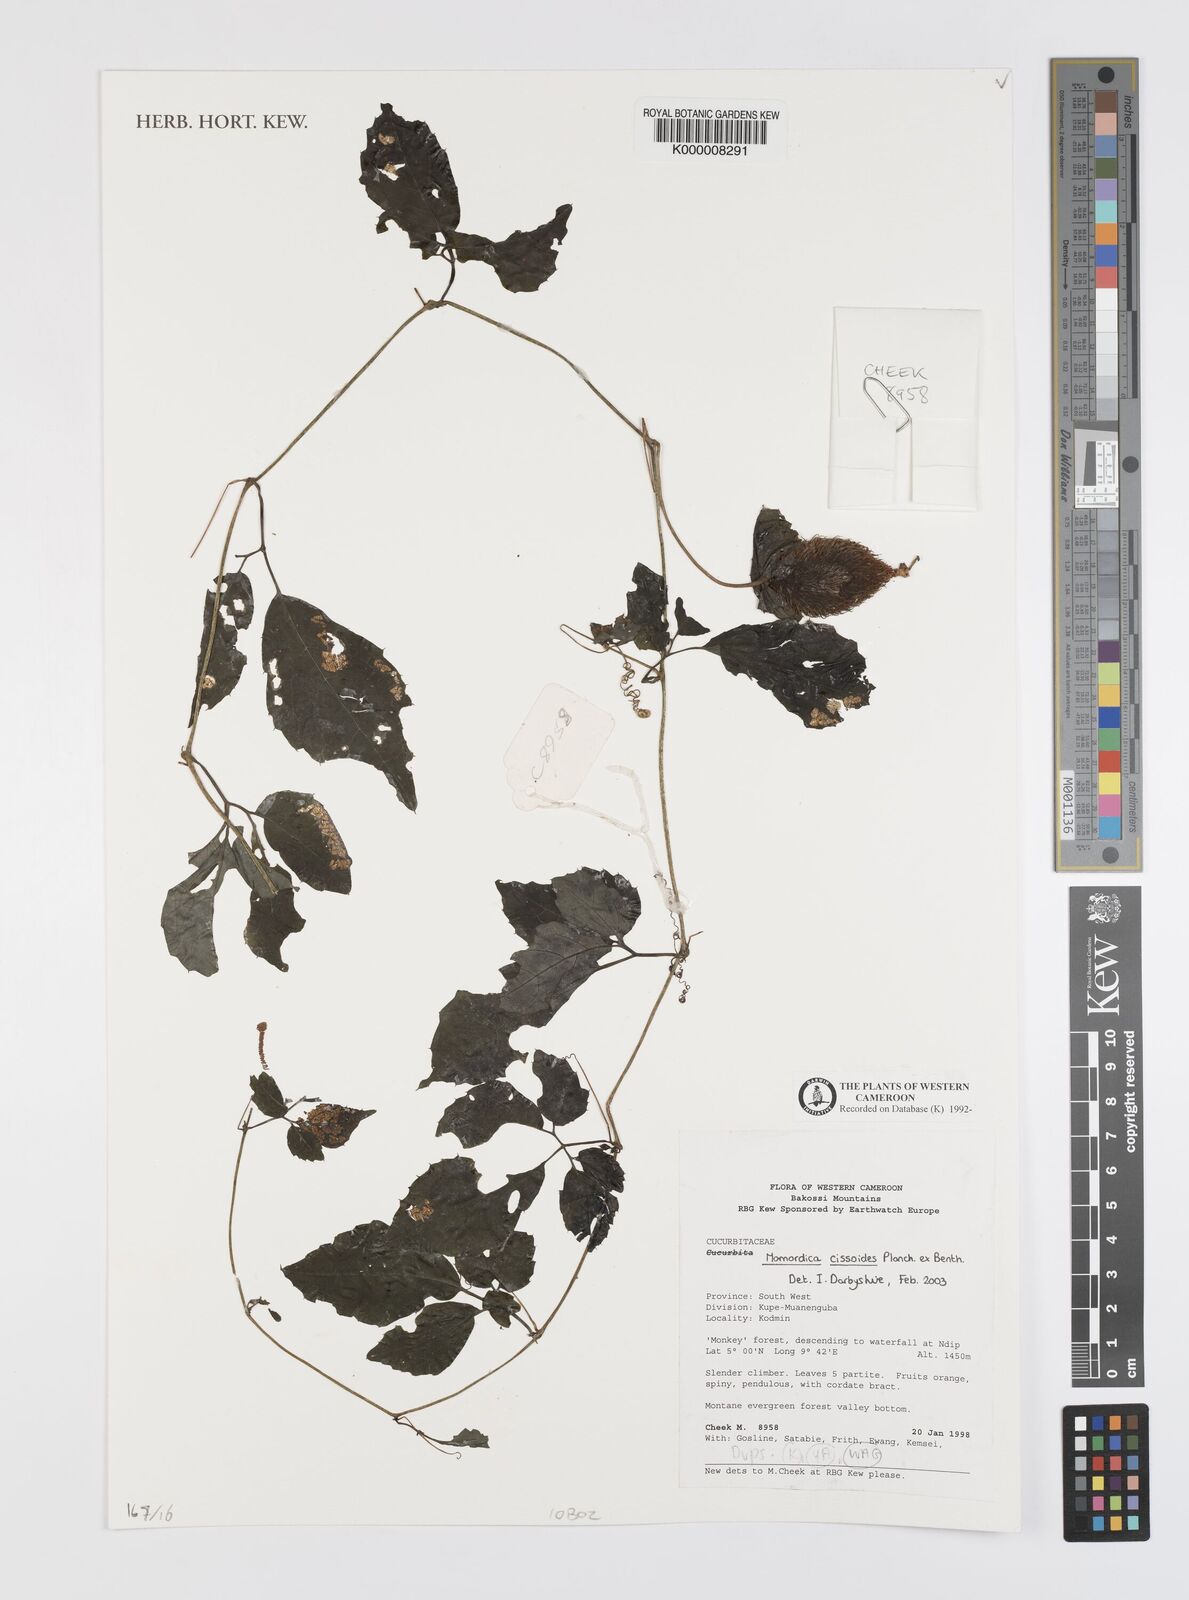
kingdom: Plantae
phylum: Tracheophyta
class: Magnoliopsida
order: Cucurbitales
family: Cucurbitaceae
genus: Momordica
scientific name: Momordica cissoides
